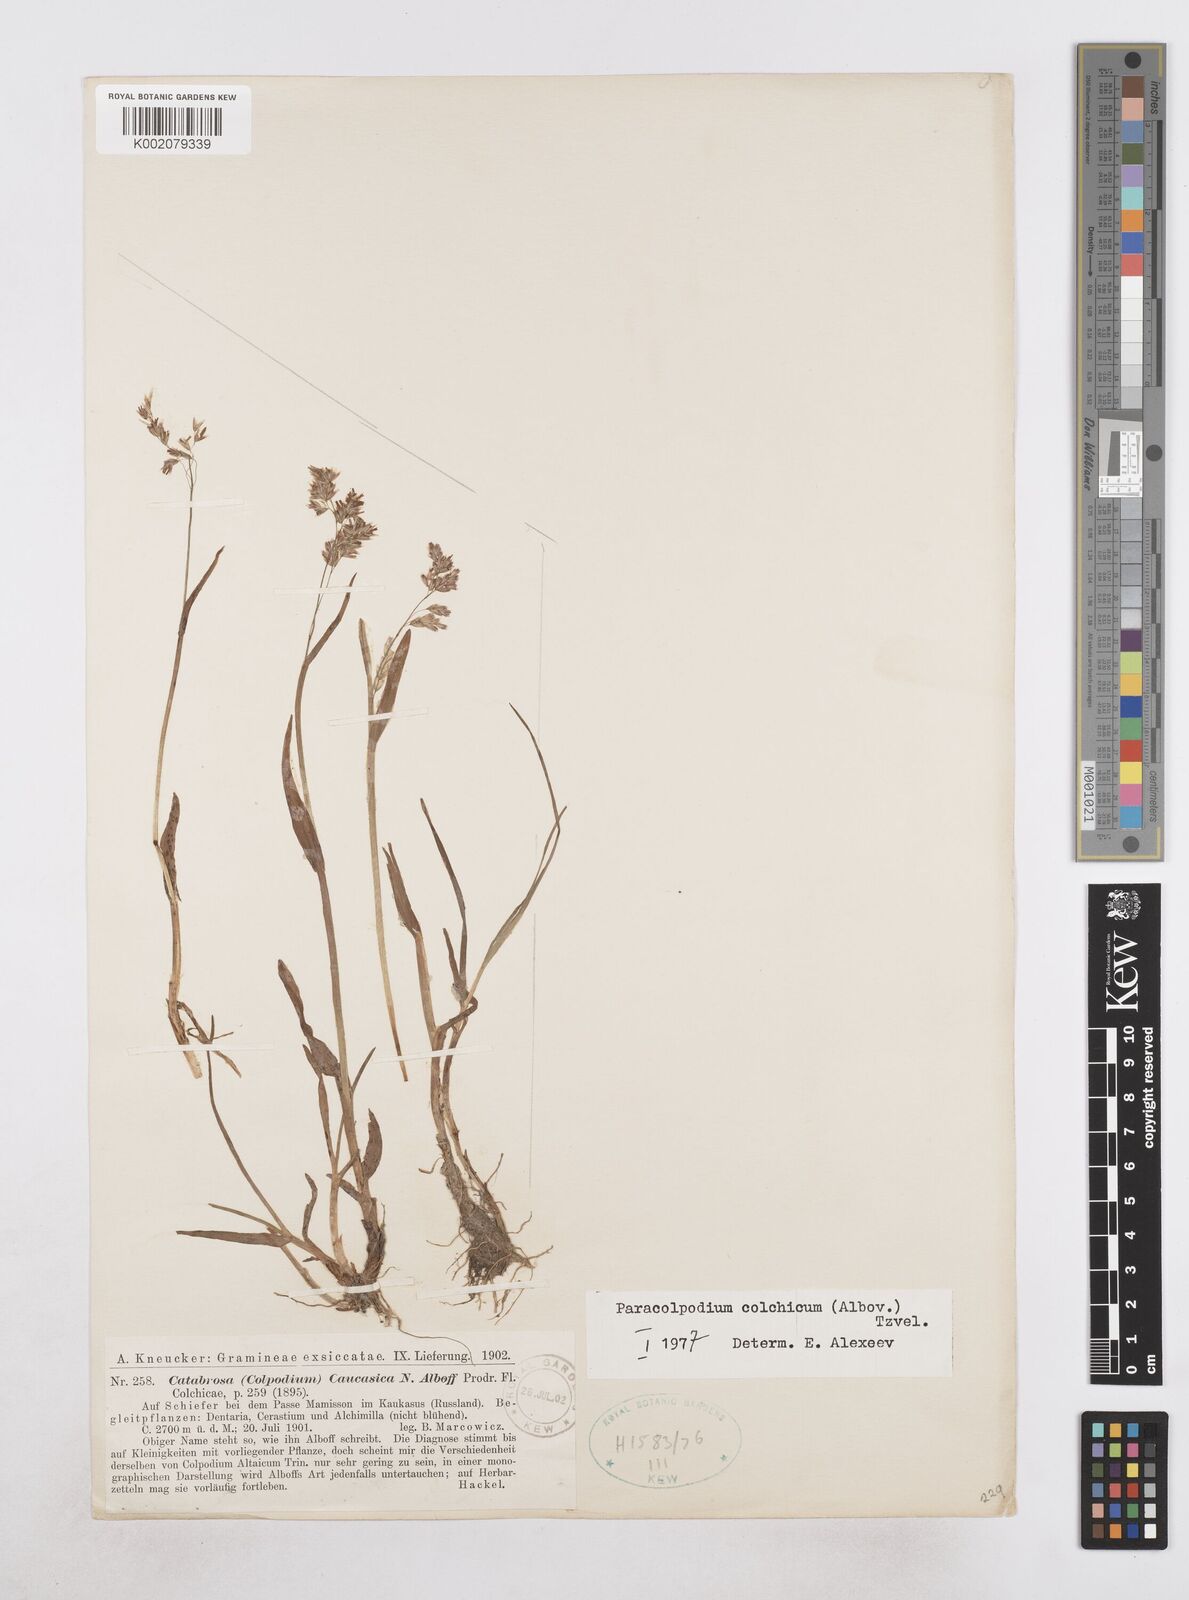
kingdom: Plantae
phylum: Tracheophyta
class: Liliopsida
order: Poales
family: Poaceae
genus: Paracolpodium
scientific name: Paracolpodium colchicum
